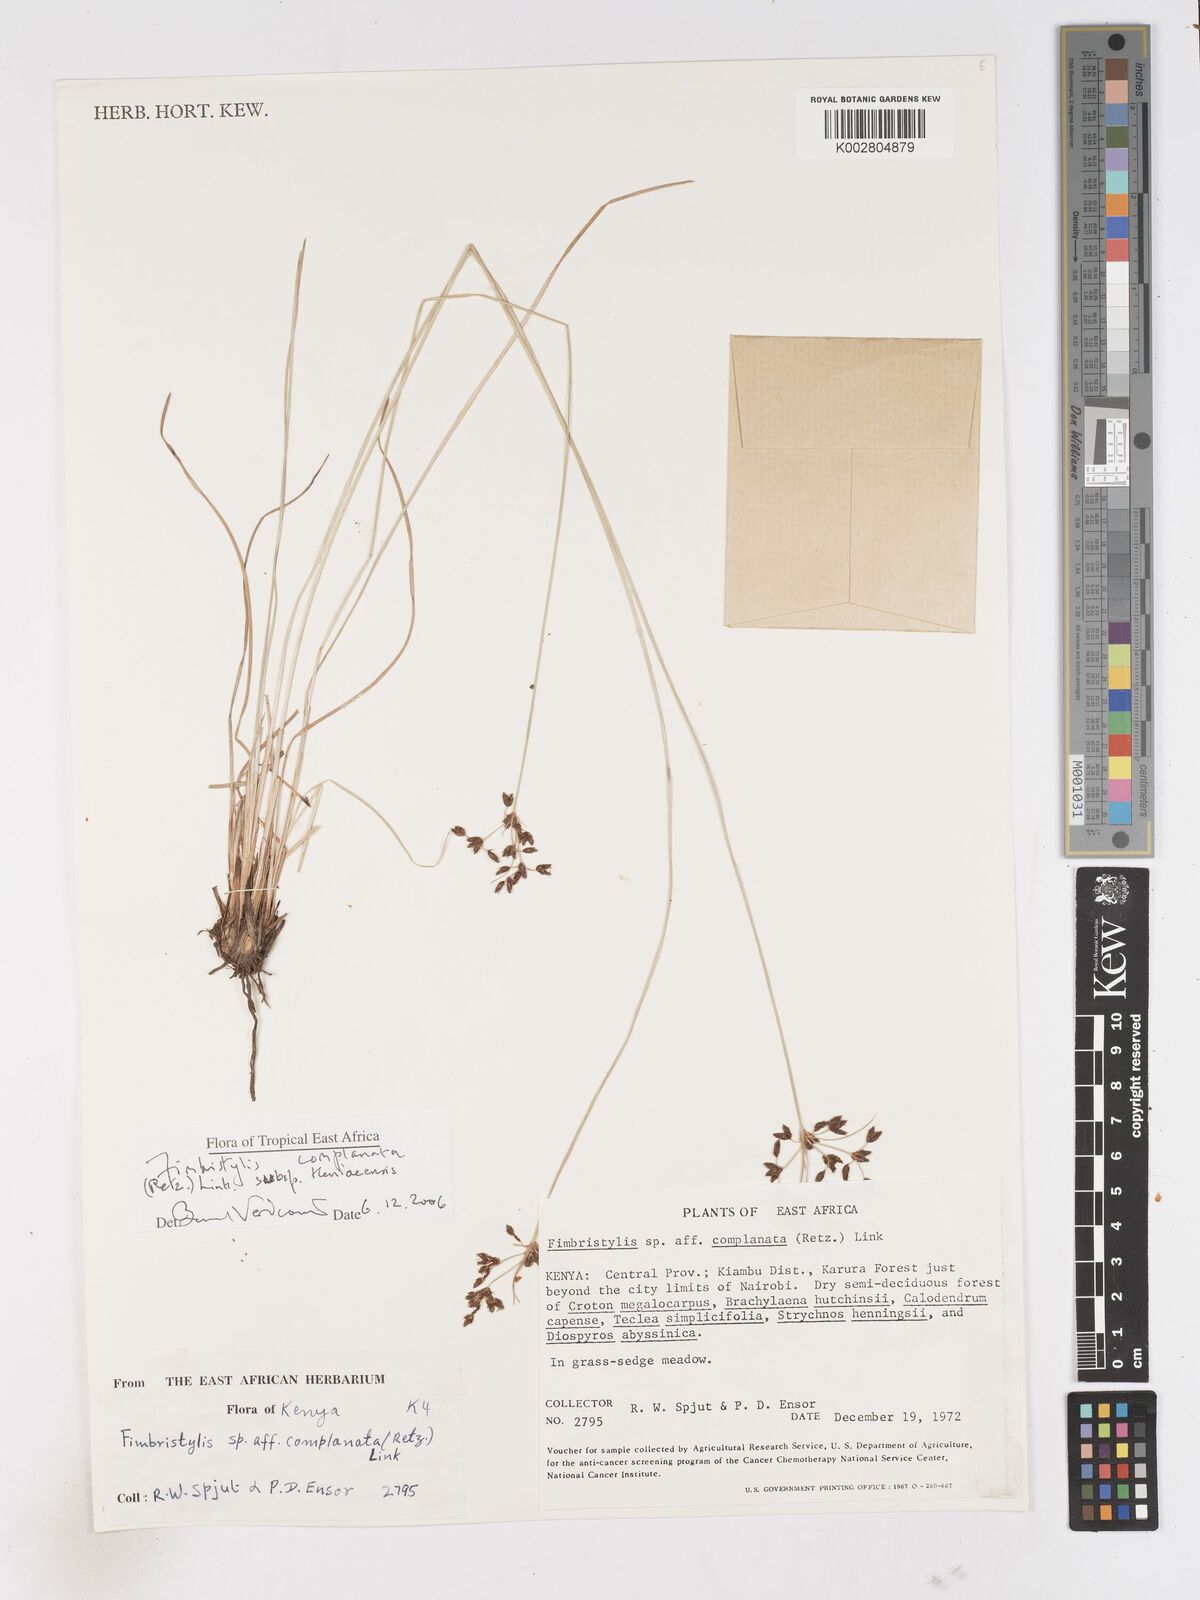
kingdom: Plantae
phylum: Tracheophyta
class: Liliopsida
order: Poales
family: Cyperaceae
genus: Fimbristylis
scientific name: Fimbristylis complanata
